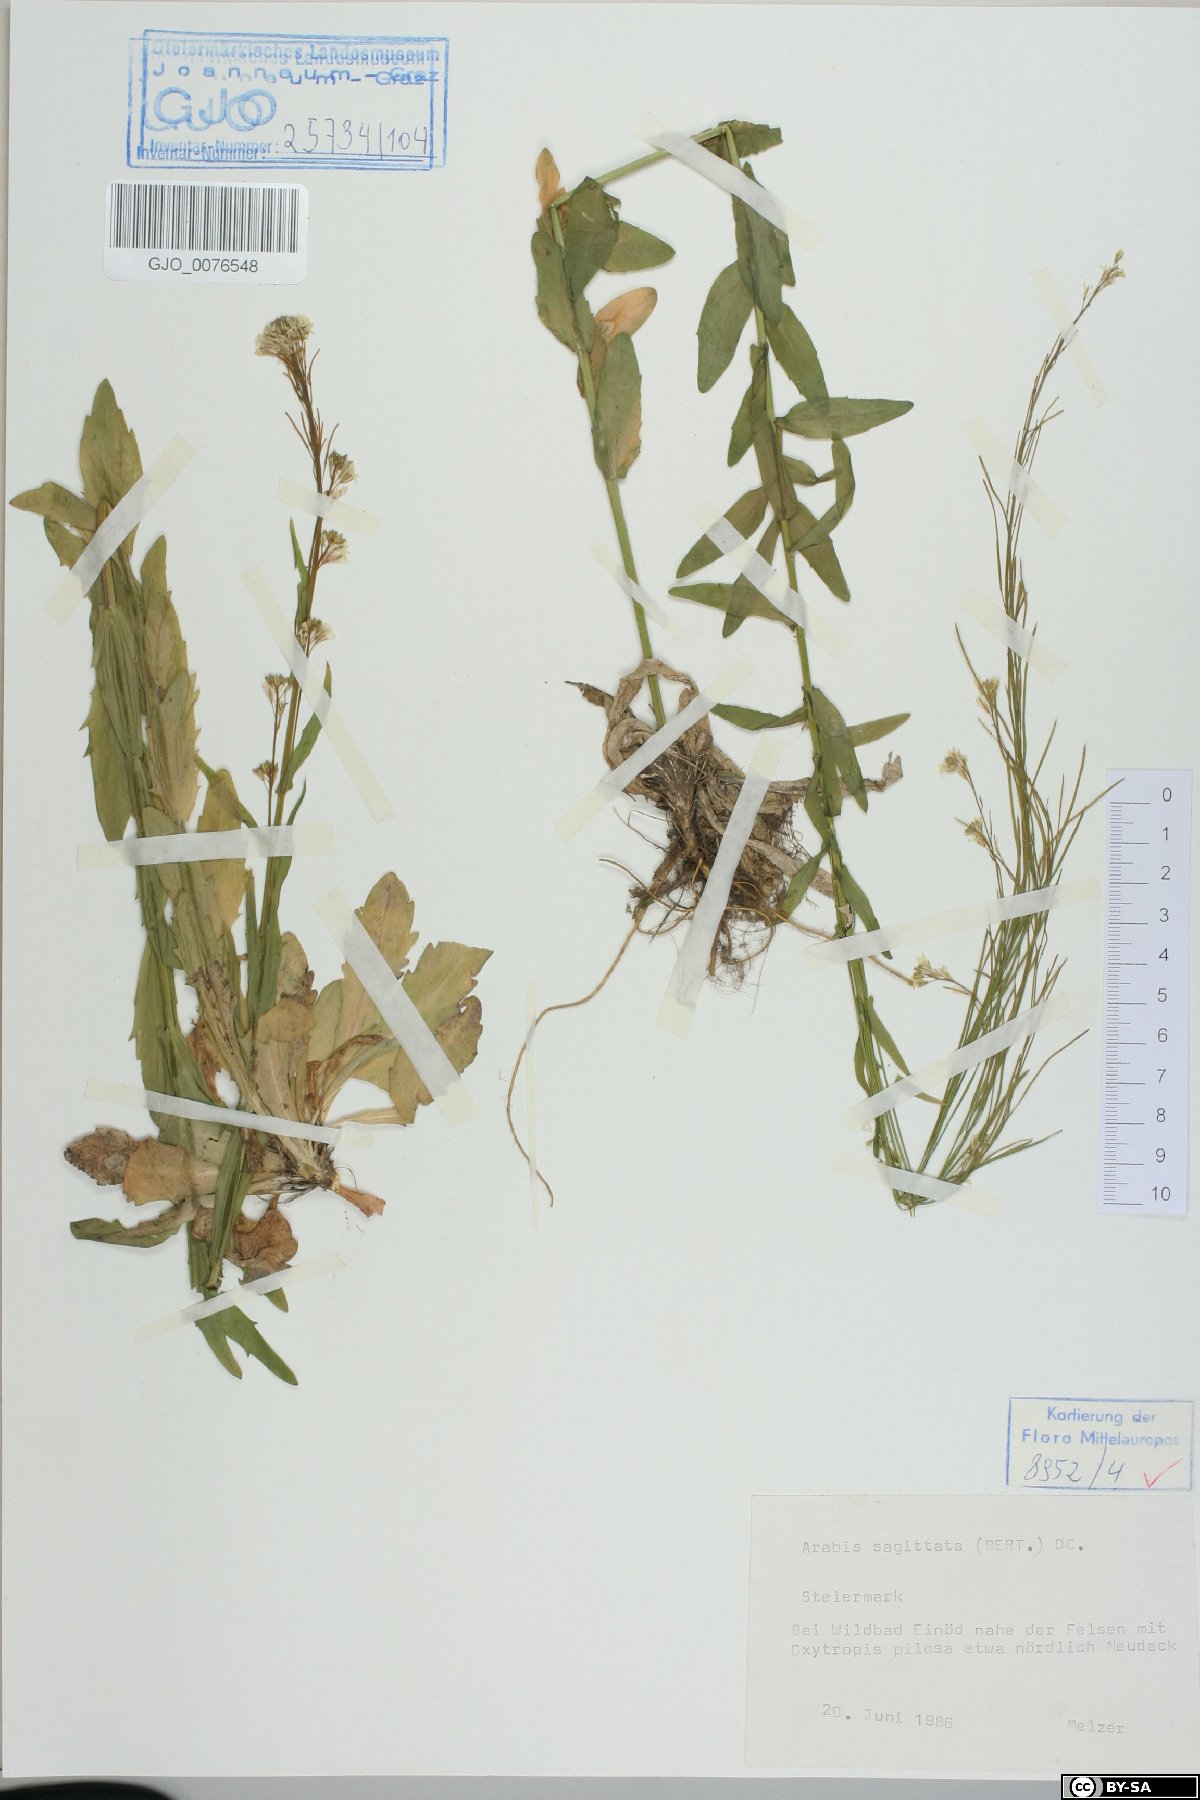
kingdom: Plantae
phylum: Tracheophyta
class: Magnoliopsida
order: Brassicales
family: Brassicaceae
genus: Arabis
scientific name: Arabis sagittata
